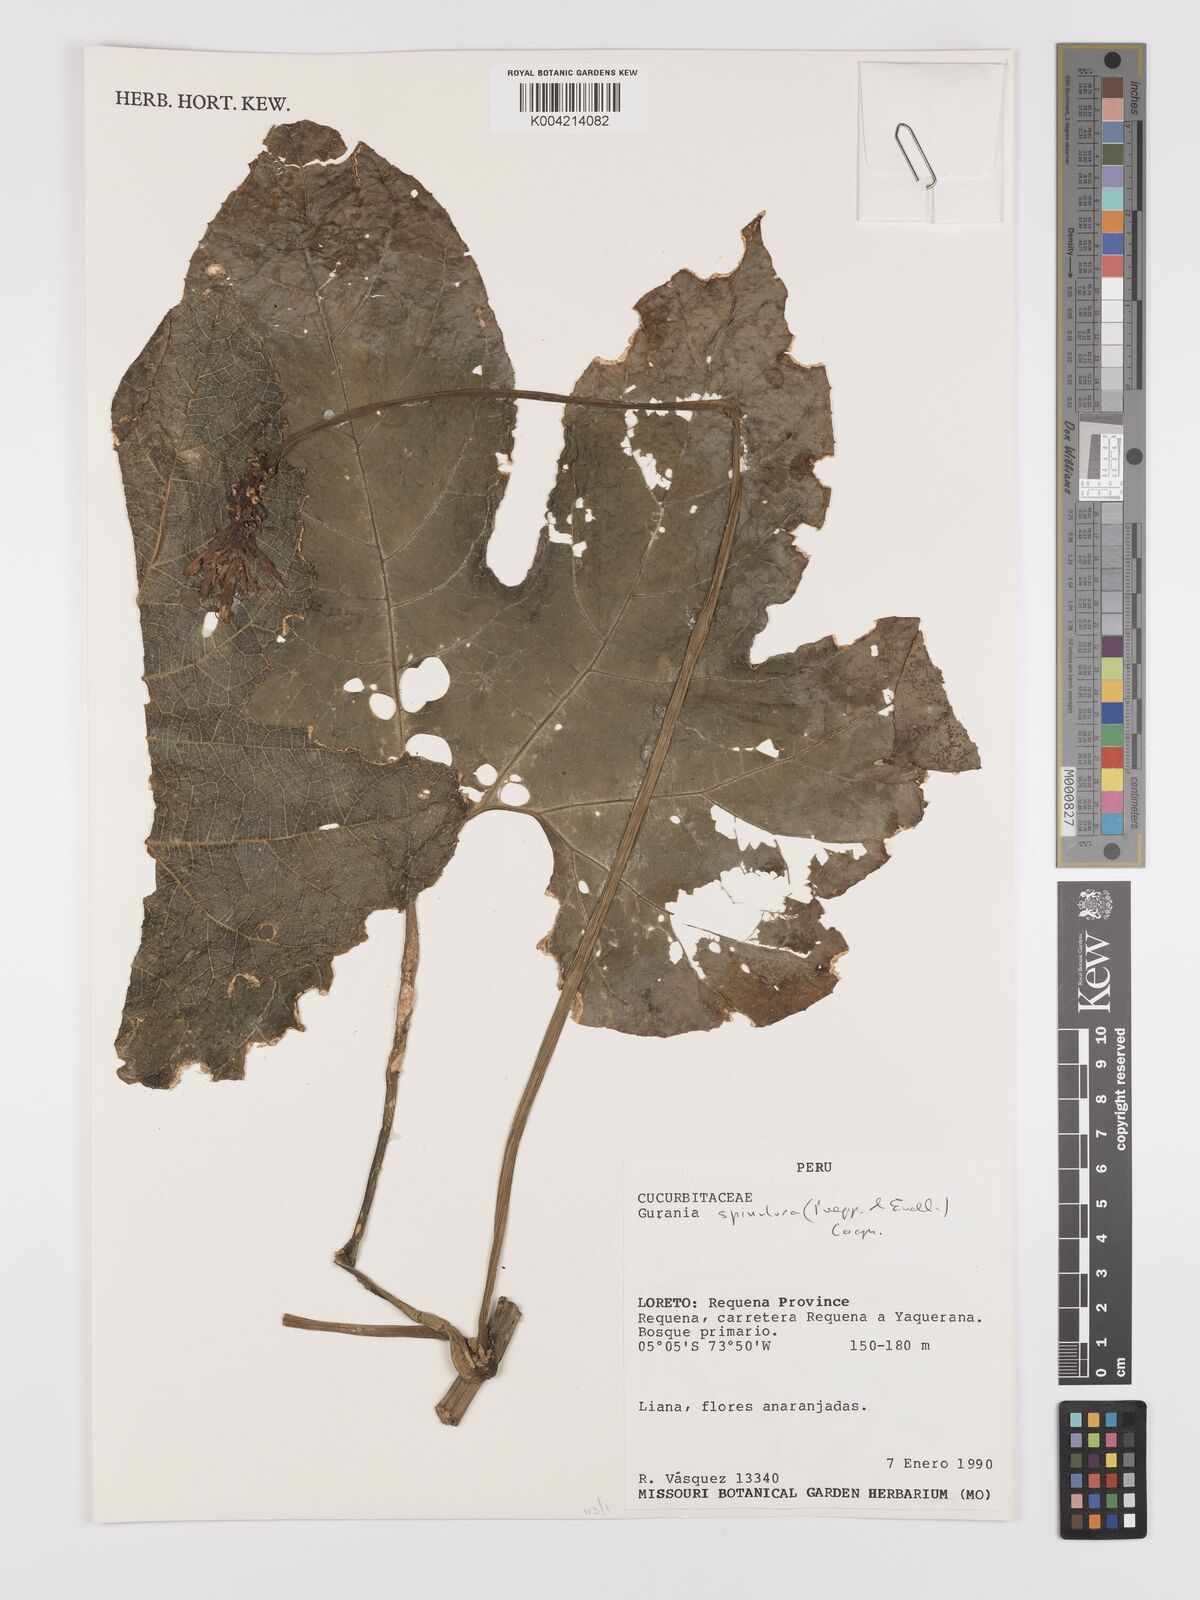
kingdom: Plantae
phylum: Tracheophyta
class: Magnoliopsida
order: Cucurbitales
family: Cucurbitaceae
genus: Gurania
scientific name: Gurania lobata
